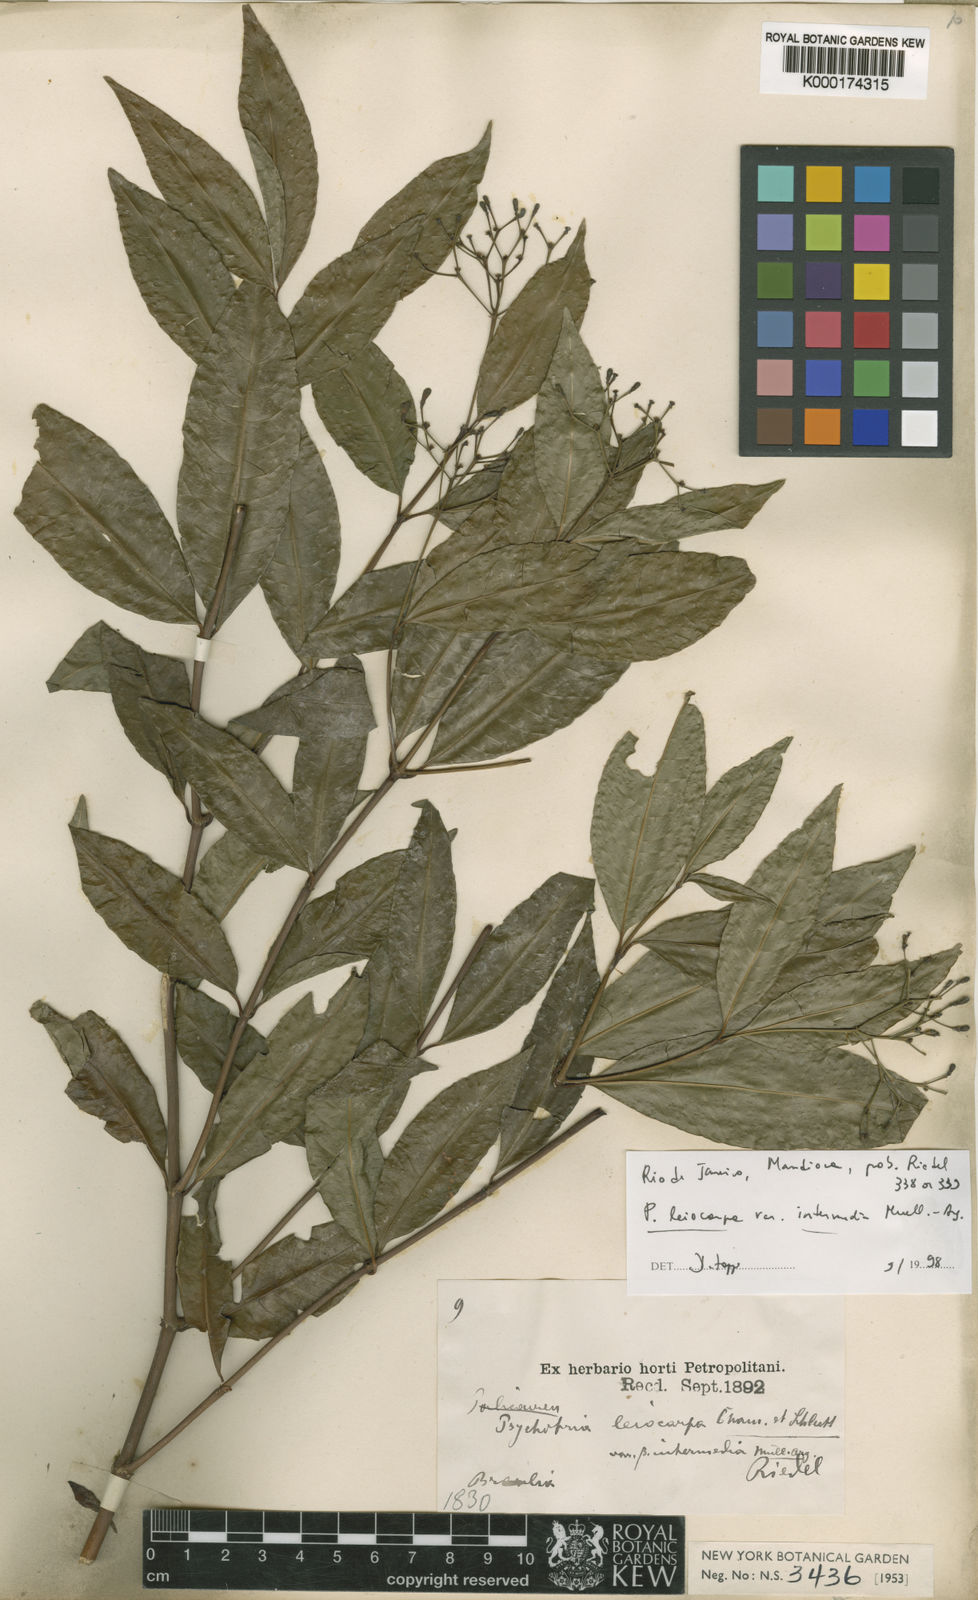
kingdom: Plantae
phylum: Tracheophyta
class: Magnoliopsida
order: Gentianales
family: Rubiaceae
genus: Psychotria
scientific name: Psychotria leiocarpa
